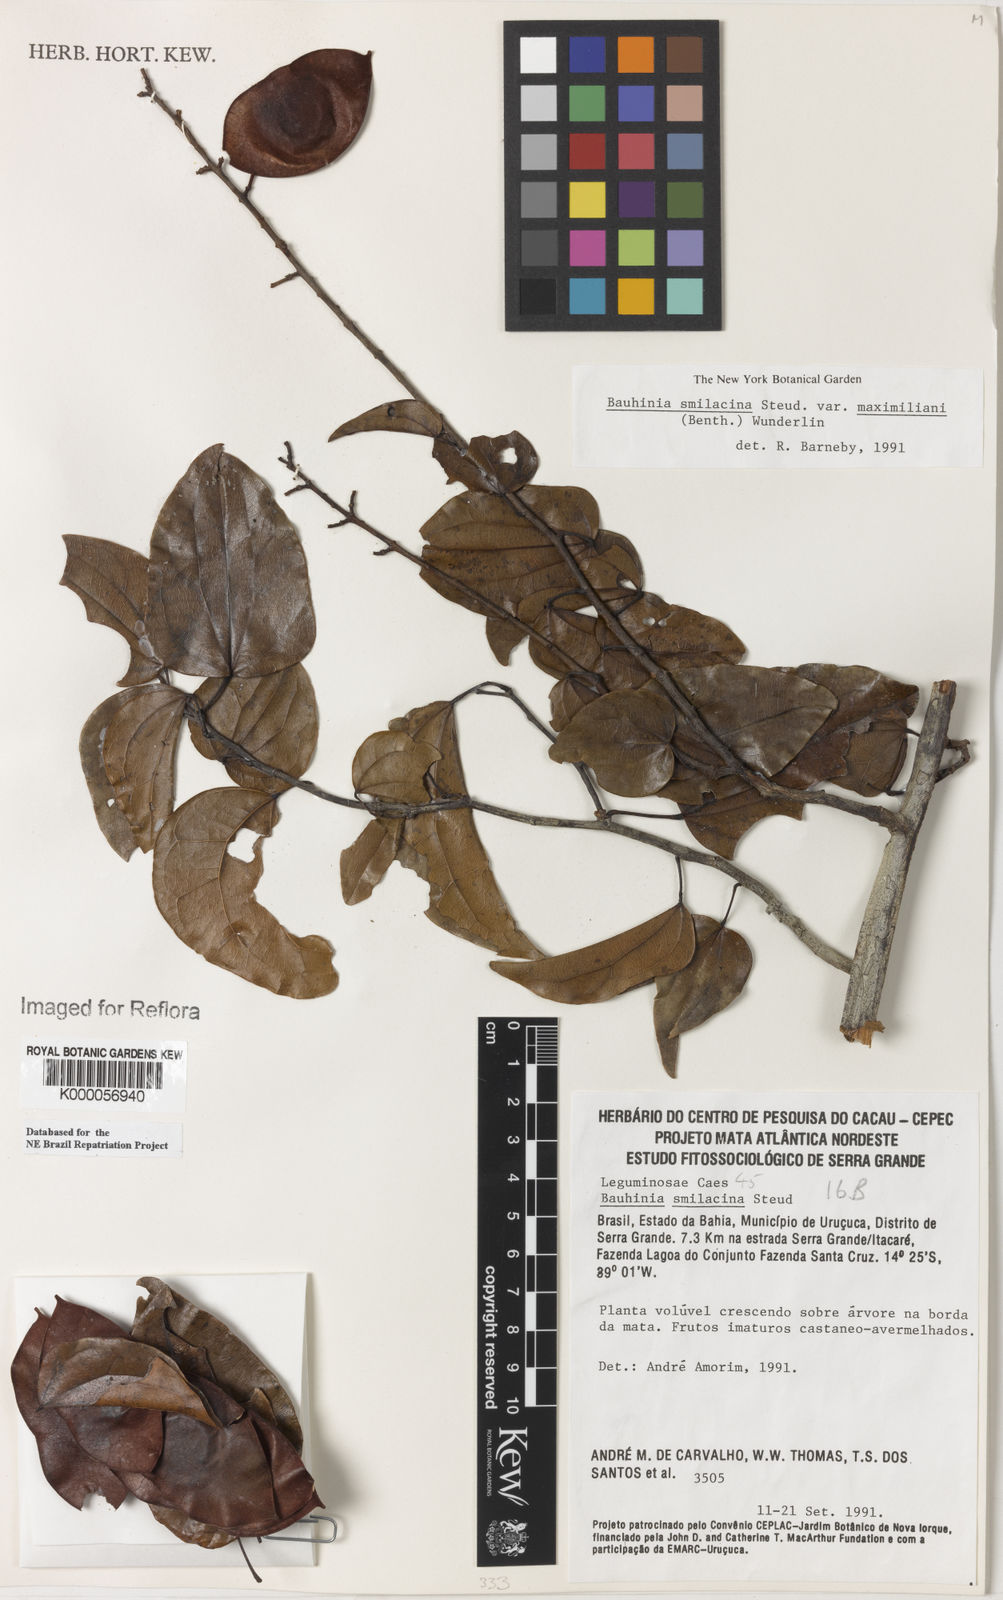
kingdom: Plantae
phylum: Tracheophyta
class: Magnoliopsida
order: Fabales
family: Fabaceae
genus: Schnella
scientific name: Schnella smilacina
